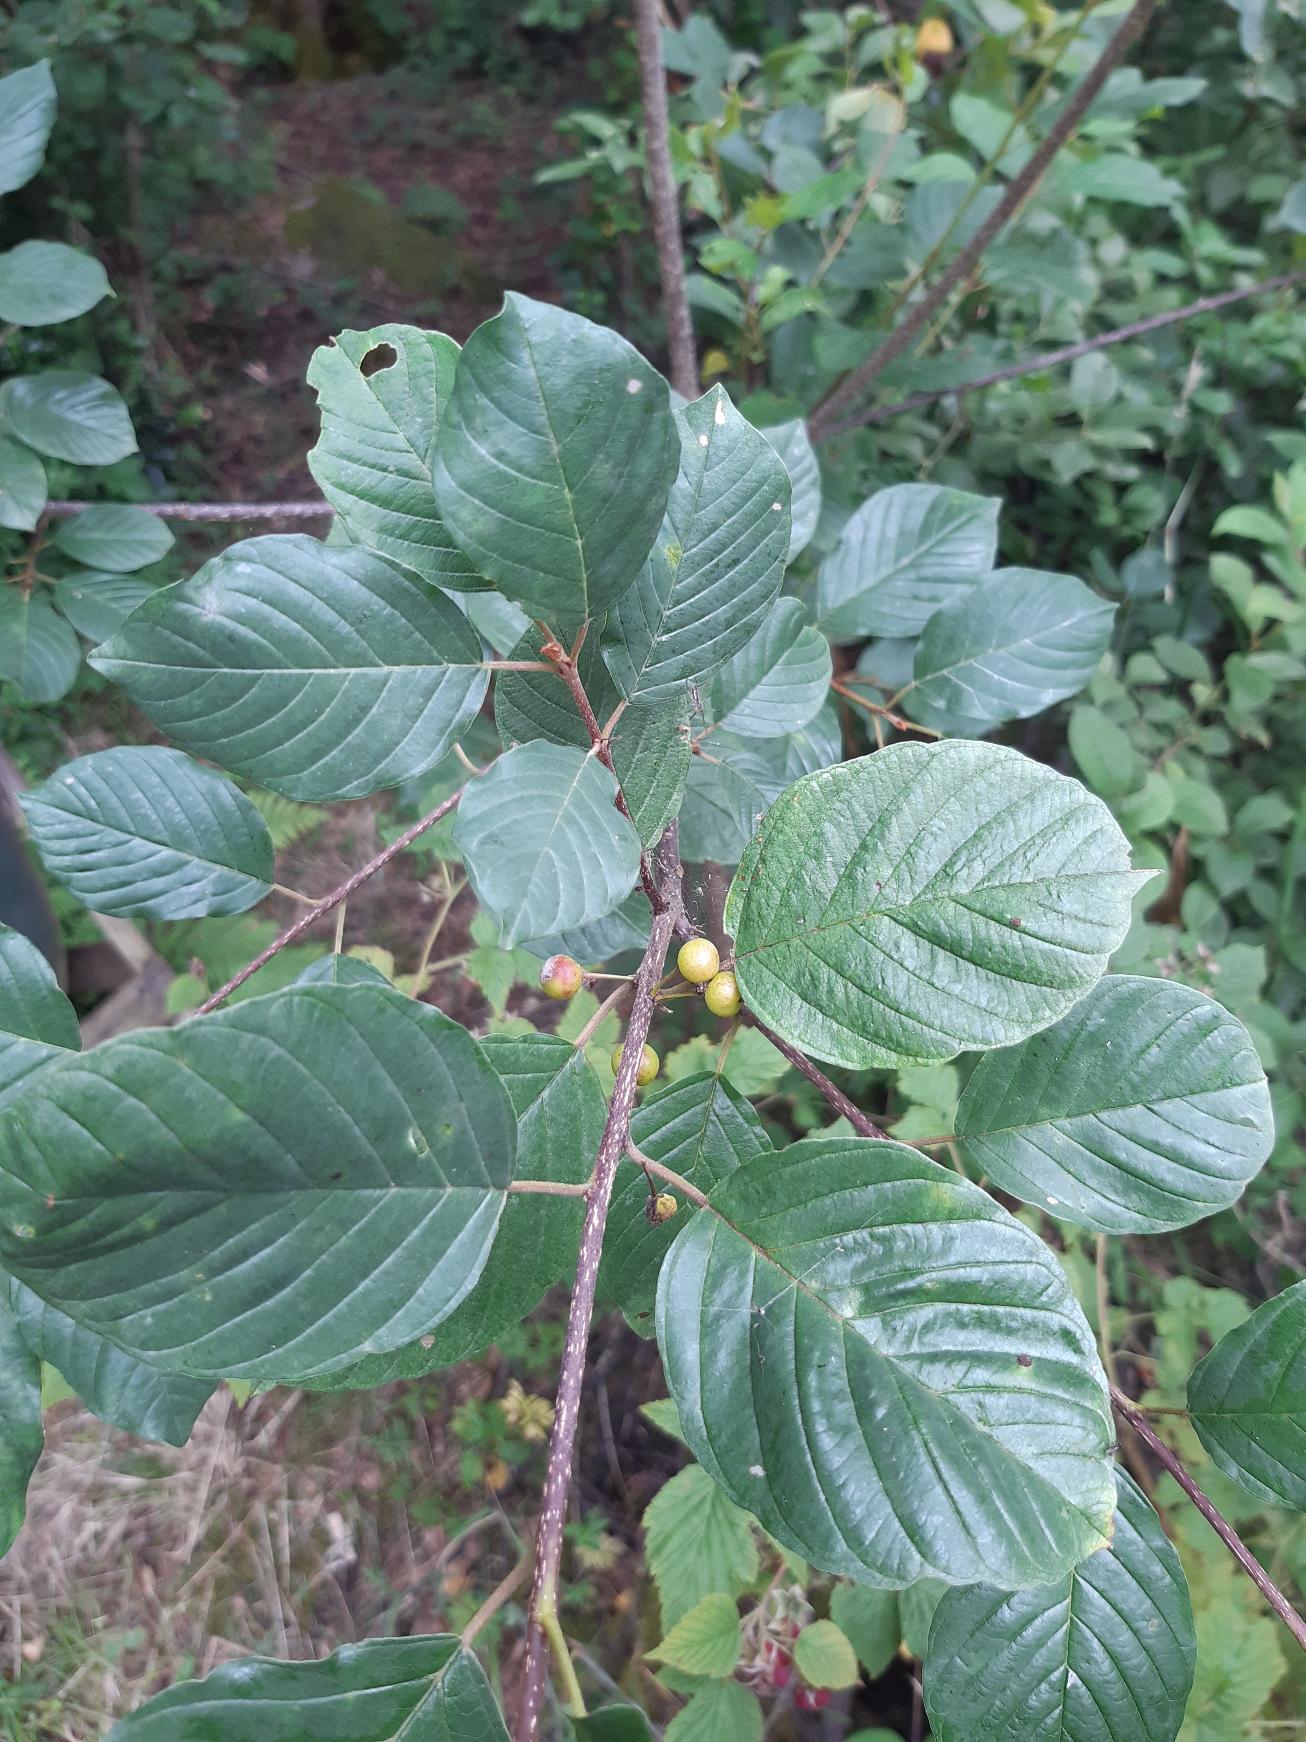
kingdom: Plantae
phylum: Tracheophyta
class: Magnoliopsida
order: Rosales
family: Rhamnaceae
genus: Frangula
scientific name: Frangula alnus
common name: Tørst
